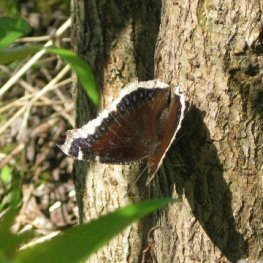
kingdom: Animalia
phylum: Arthropoda
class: Insecta
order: Lepidoptera
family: Nymphalidae
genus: Nymphalis
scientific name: Nymphalis antiopa
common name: Mourning Cloak
